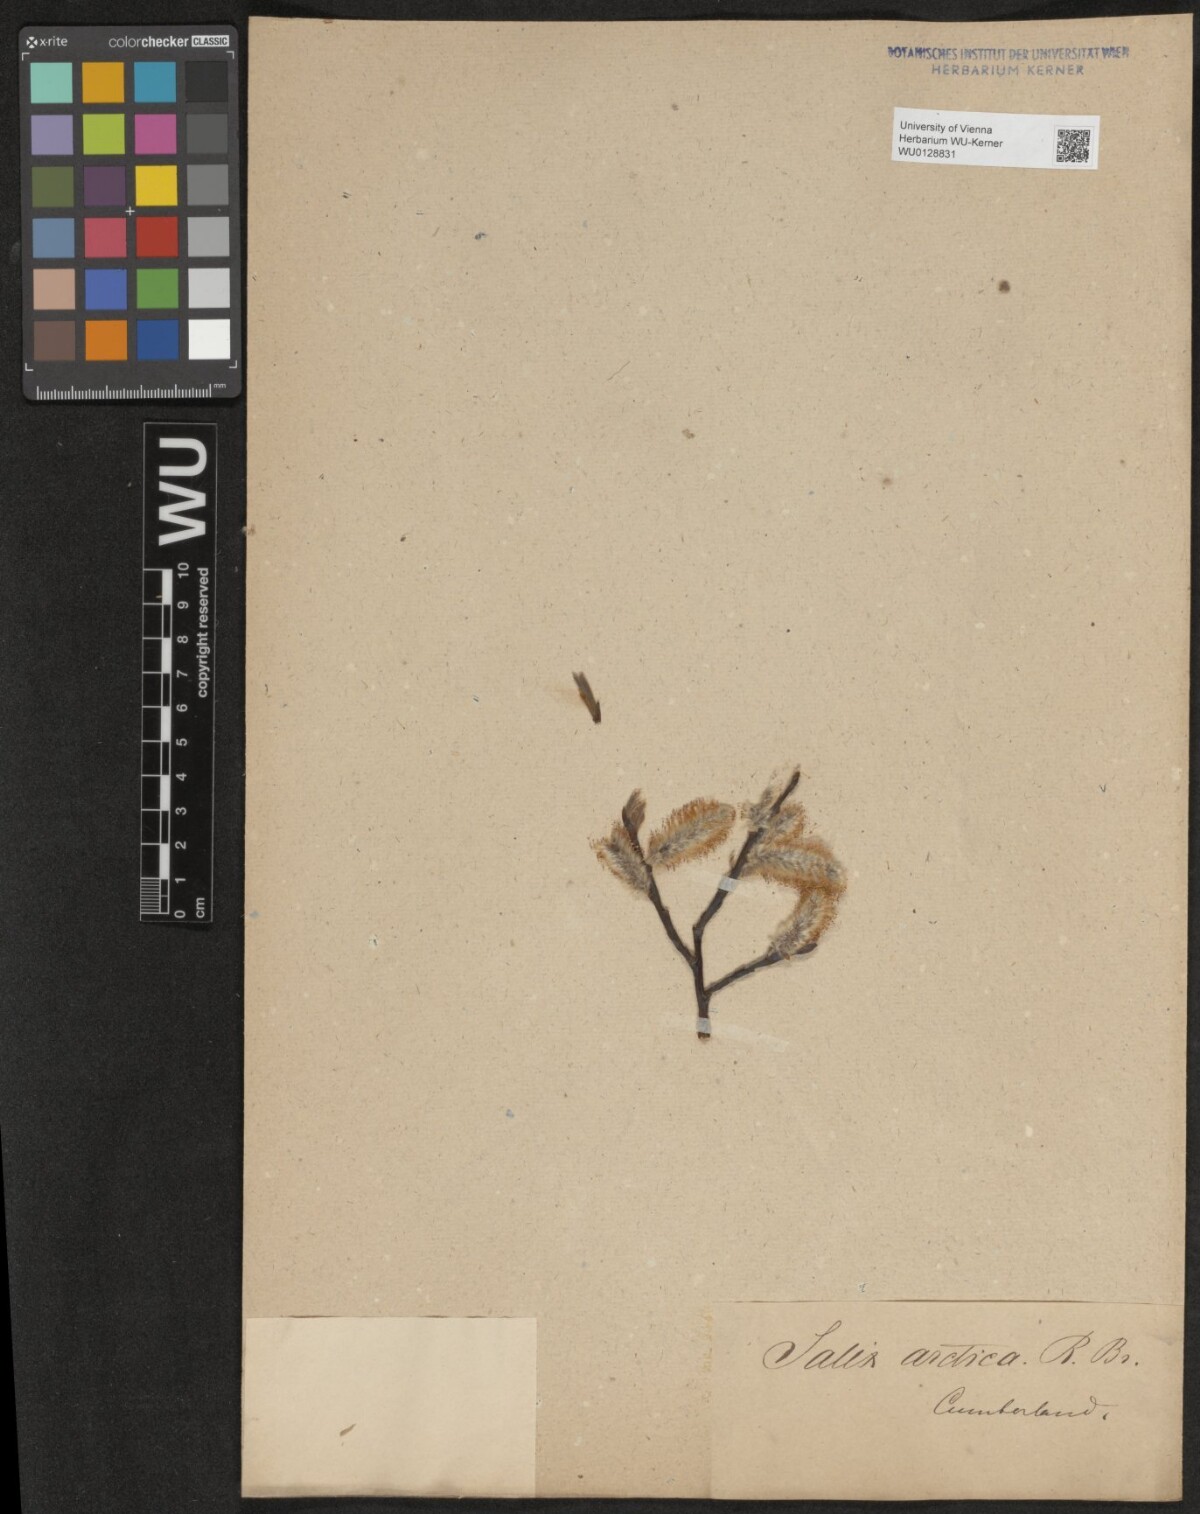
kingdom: Plantae
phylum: Tracheophyta
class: Magnoliopsida
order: Malpighiales
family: Salicaceae
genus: Salix
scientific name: Salix arctica
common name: Arctic willow
